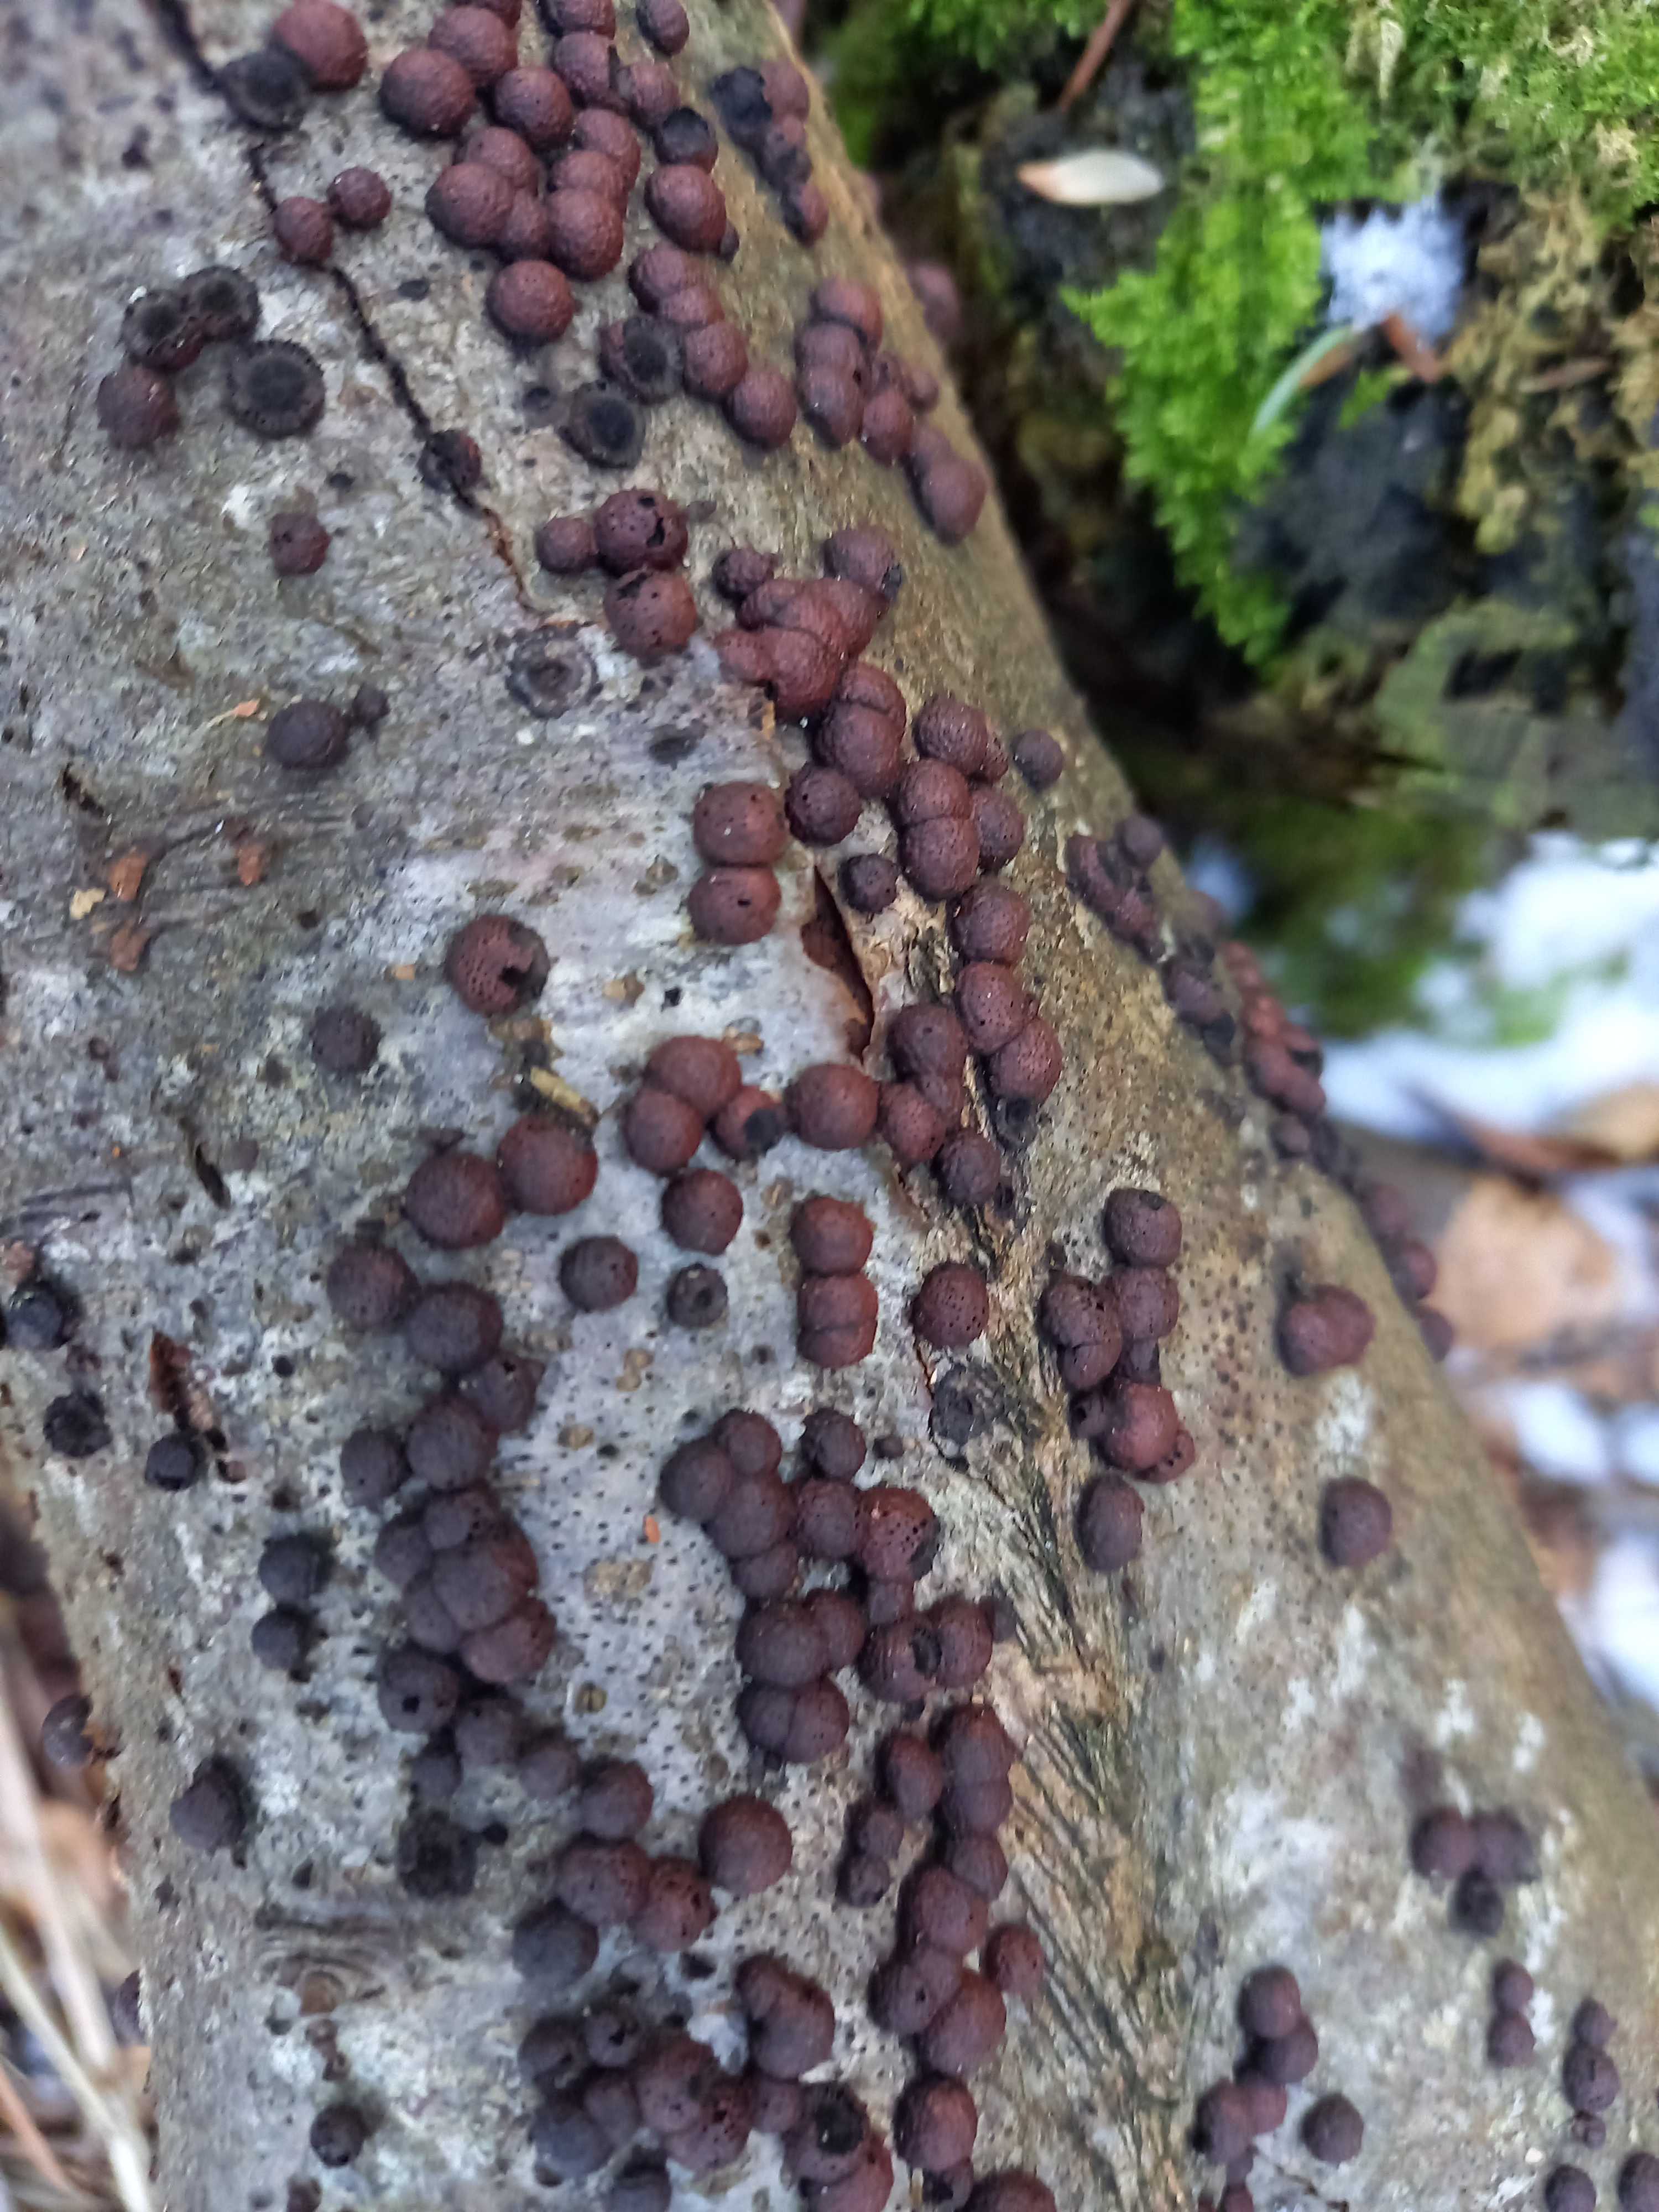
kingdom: Fungi
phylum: Ascomycota
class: Sordariomycetes
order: Xylariales
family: Hypoxylaceae
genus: Hypoxylon
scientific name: Hypoxylon fragiforme
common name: kuljordbær
